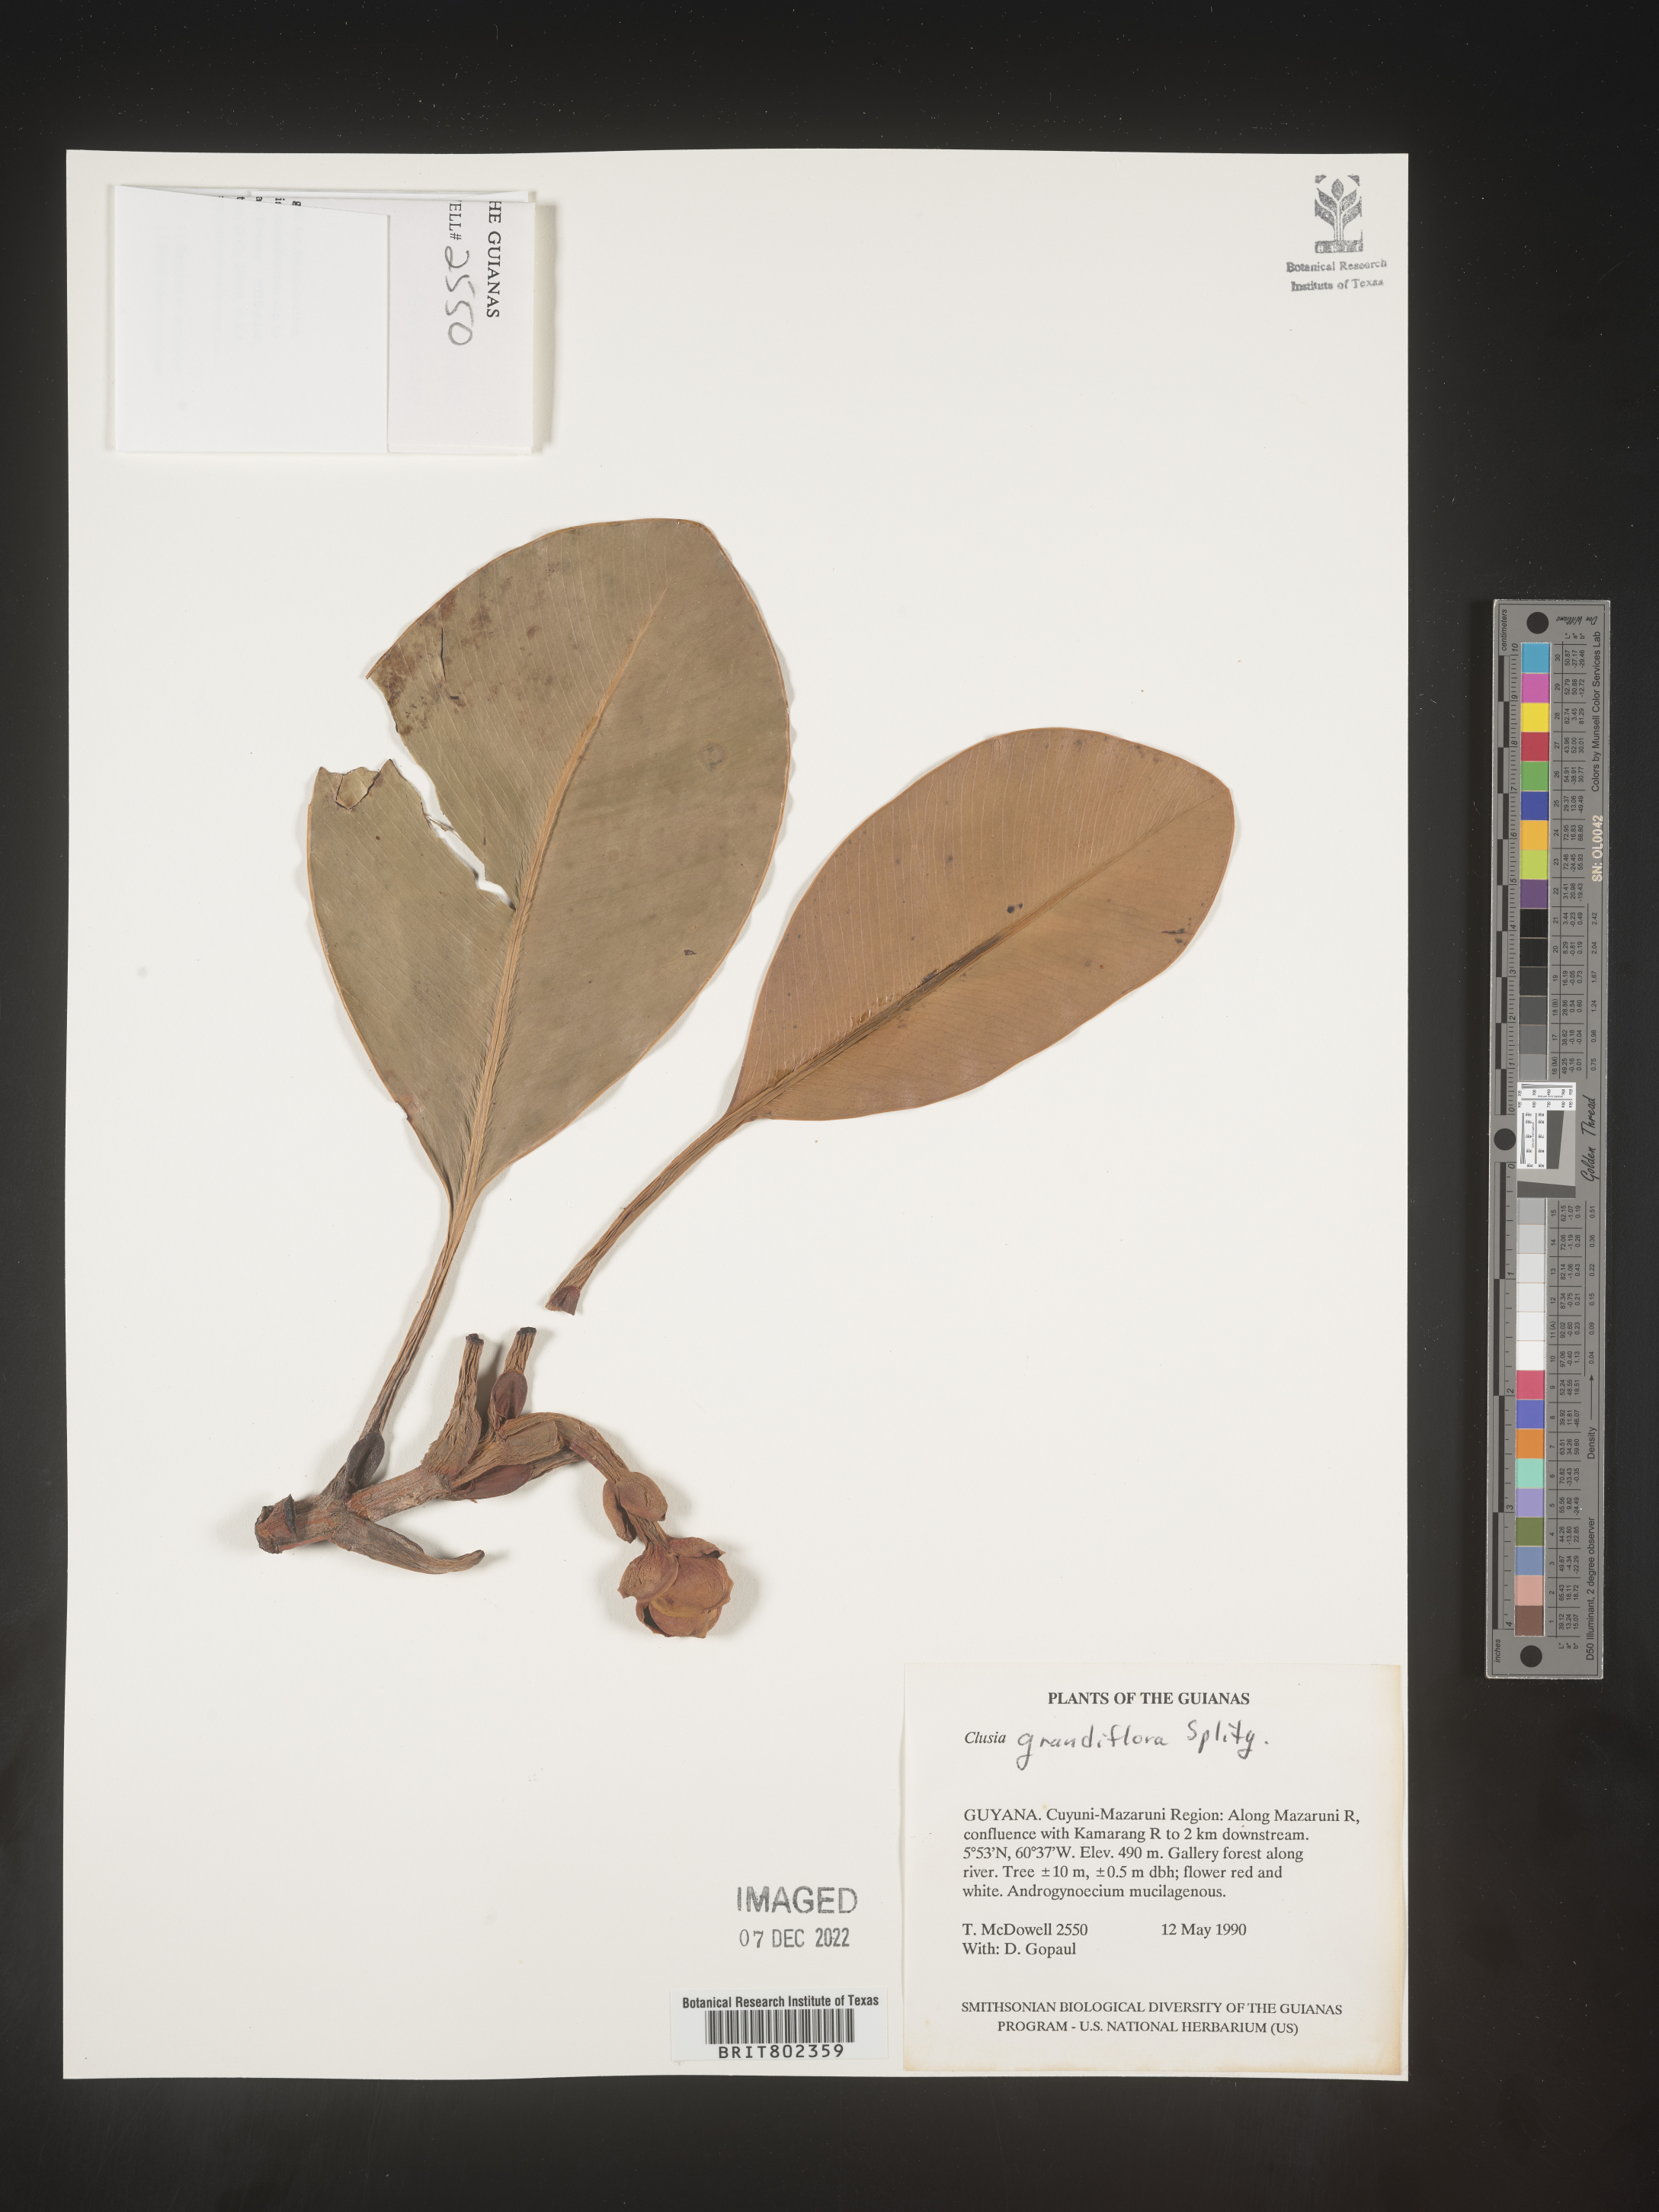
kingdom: Plantae
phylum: Tracheophyta
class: Magnoliopsida
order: Malpighiales
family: Clusiaceae
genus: Clusia
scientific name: Clusia grandiflora
